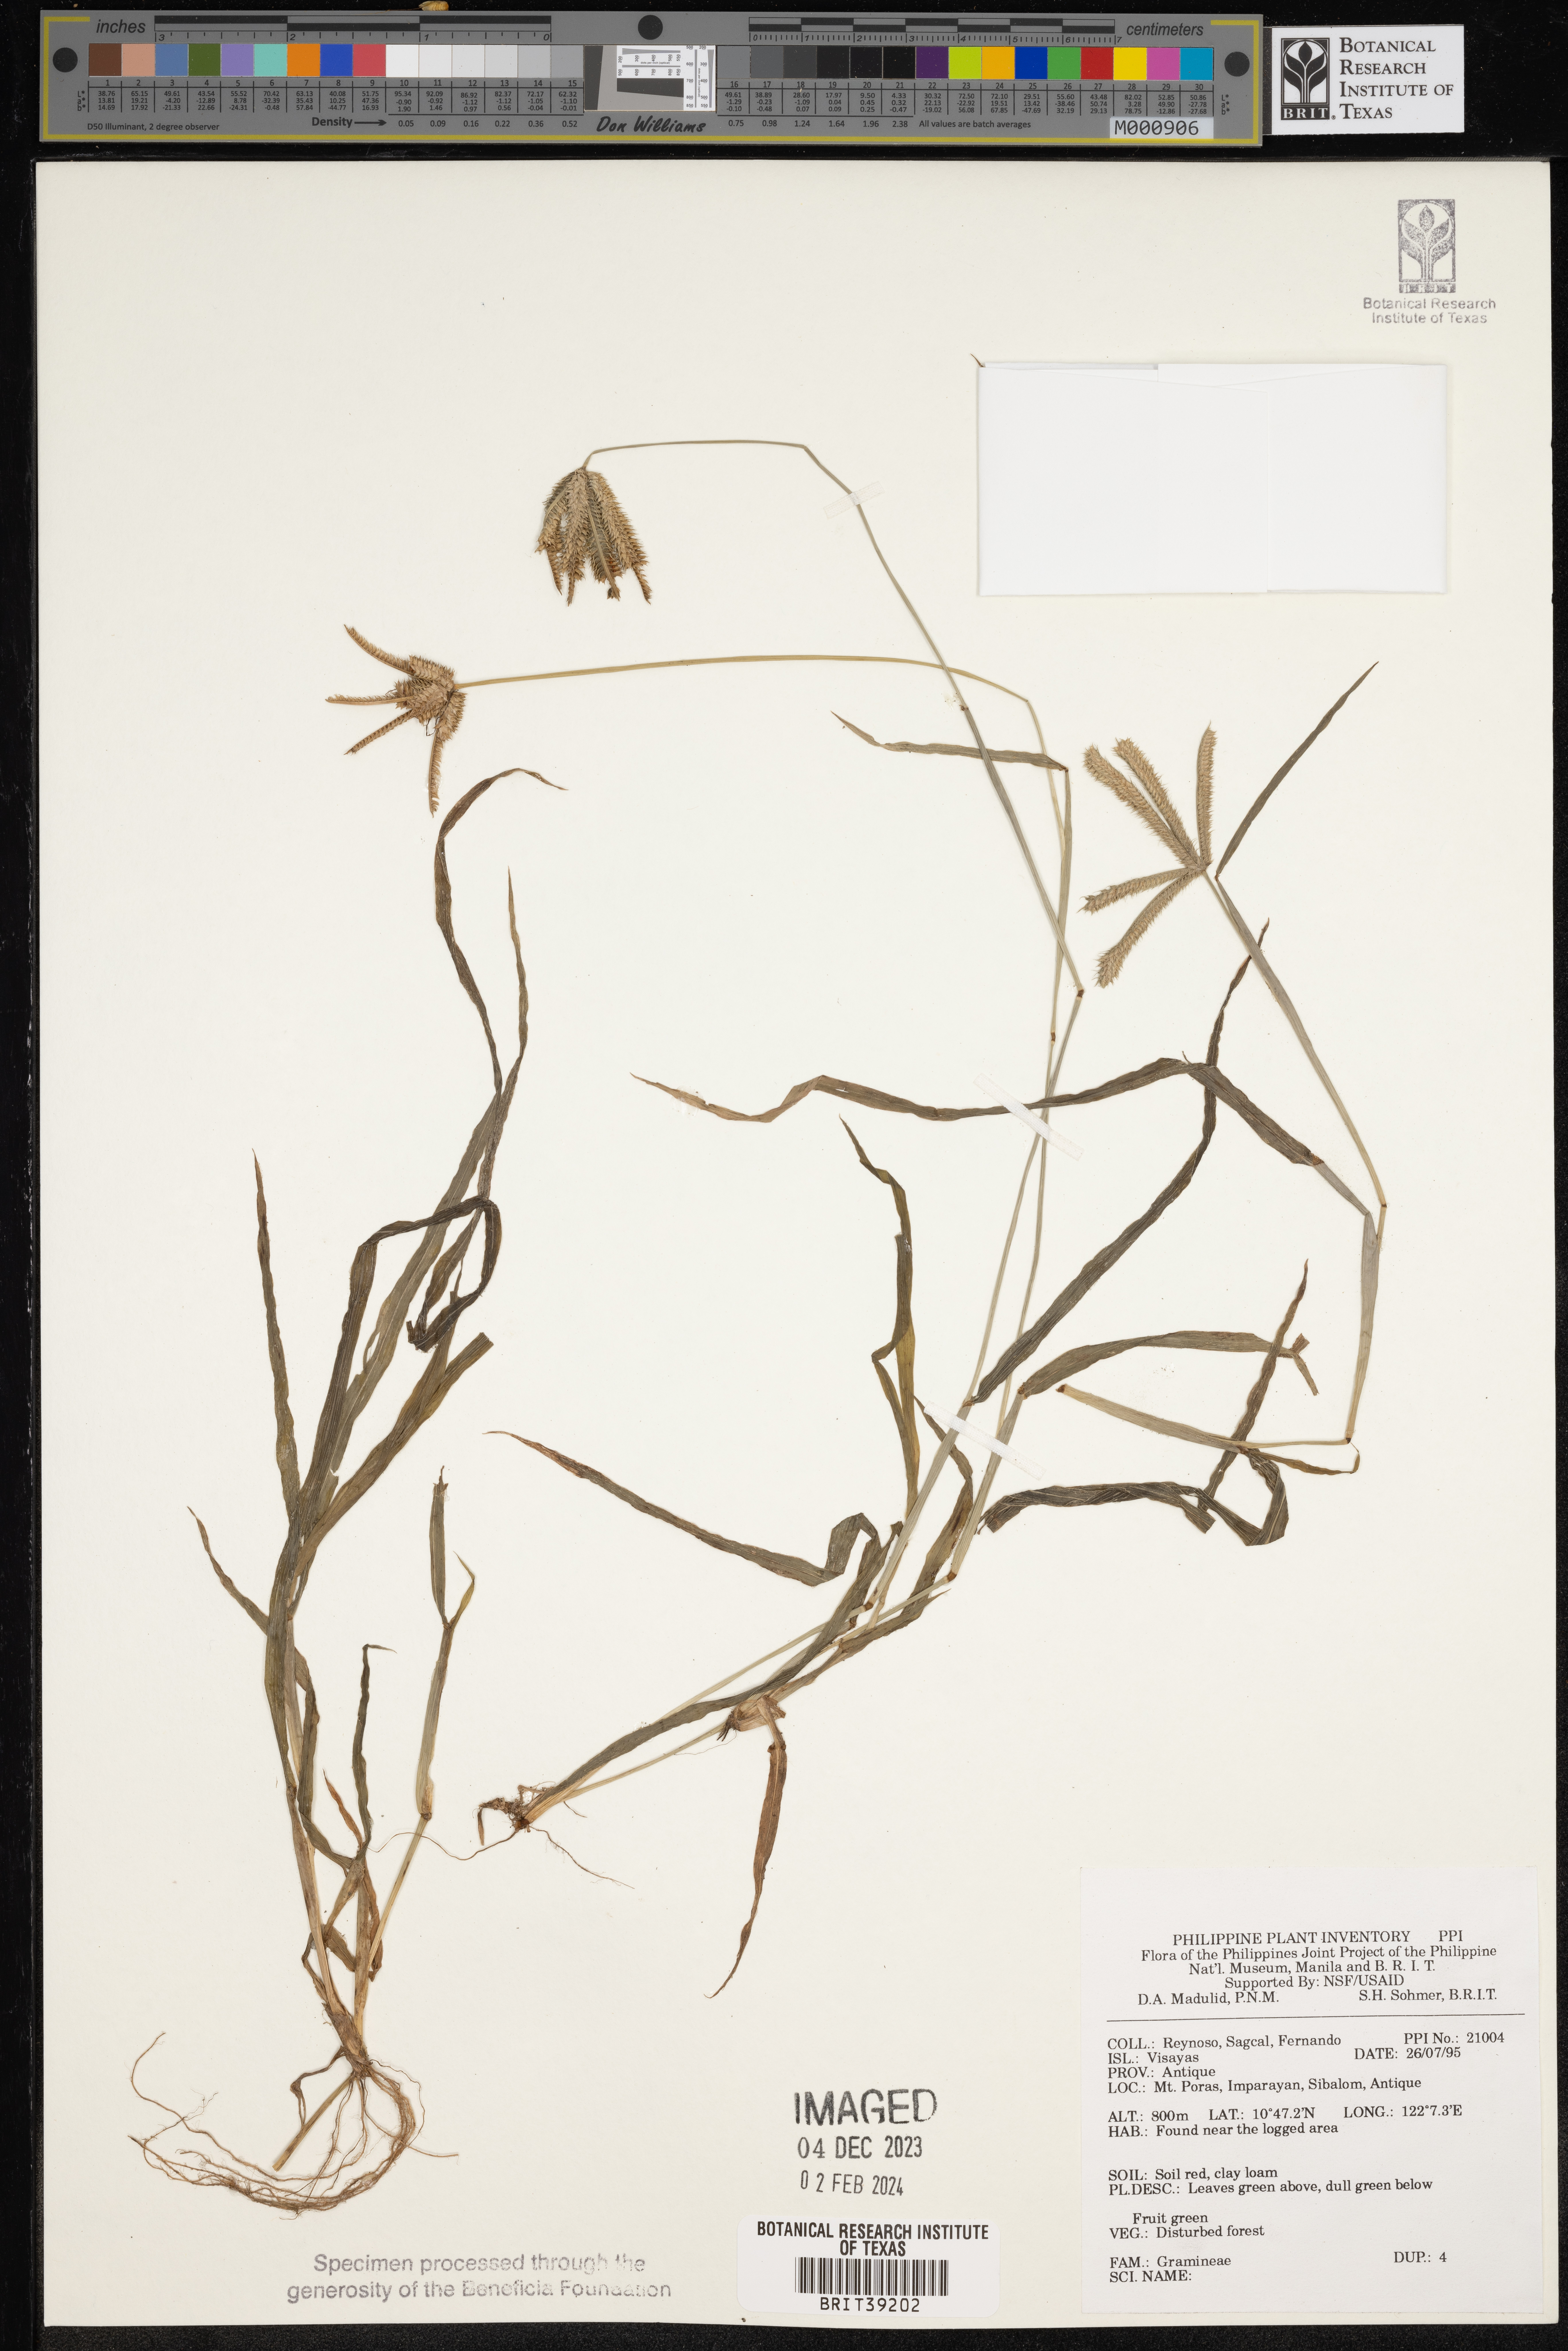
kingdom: Plantae
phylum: Tracheophyta
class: Liliopsida
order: Poales
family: Poaceae
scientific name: Poaceae
